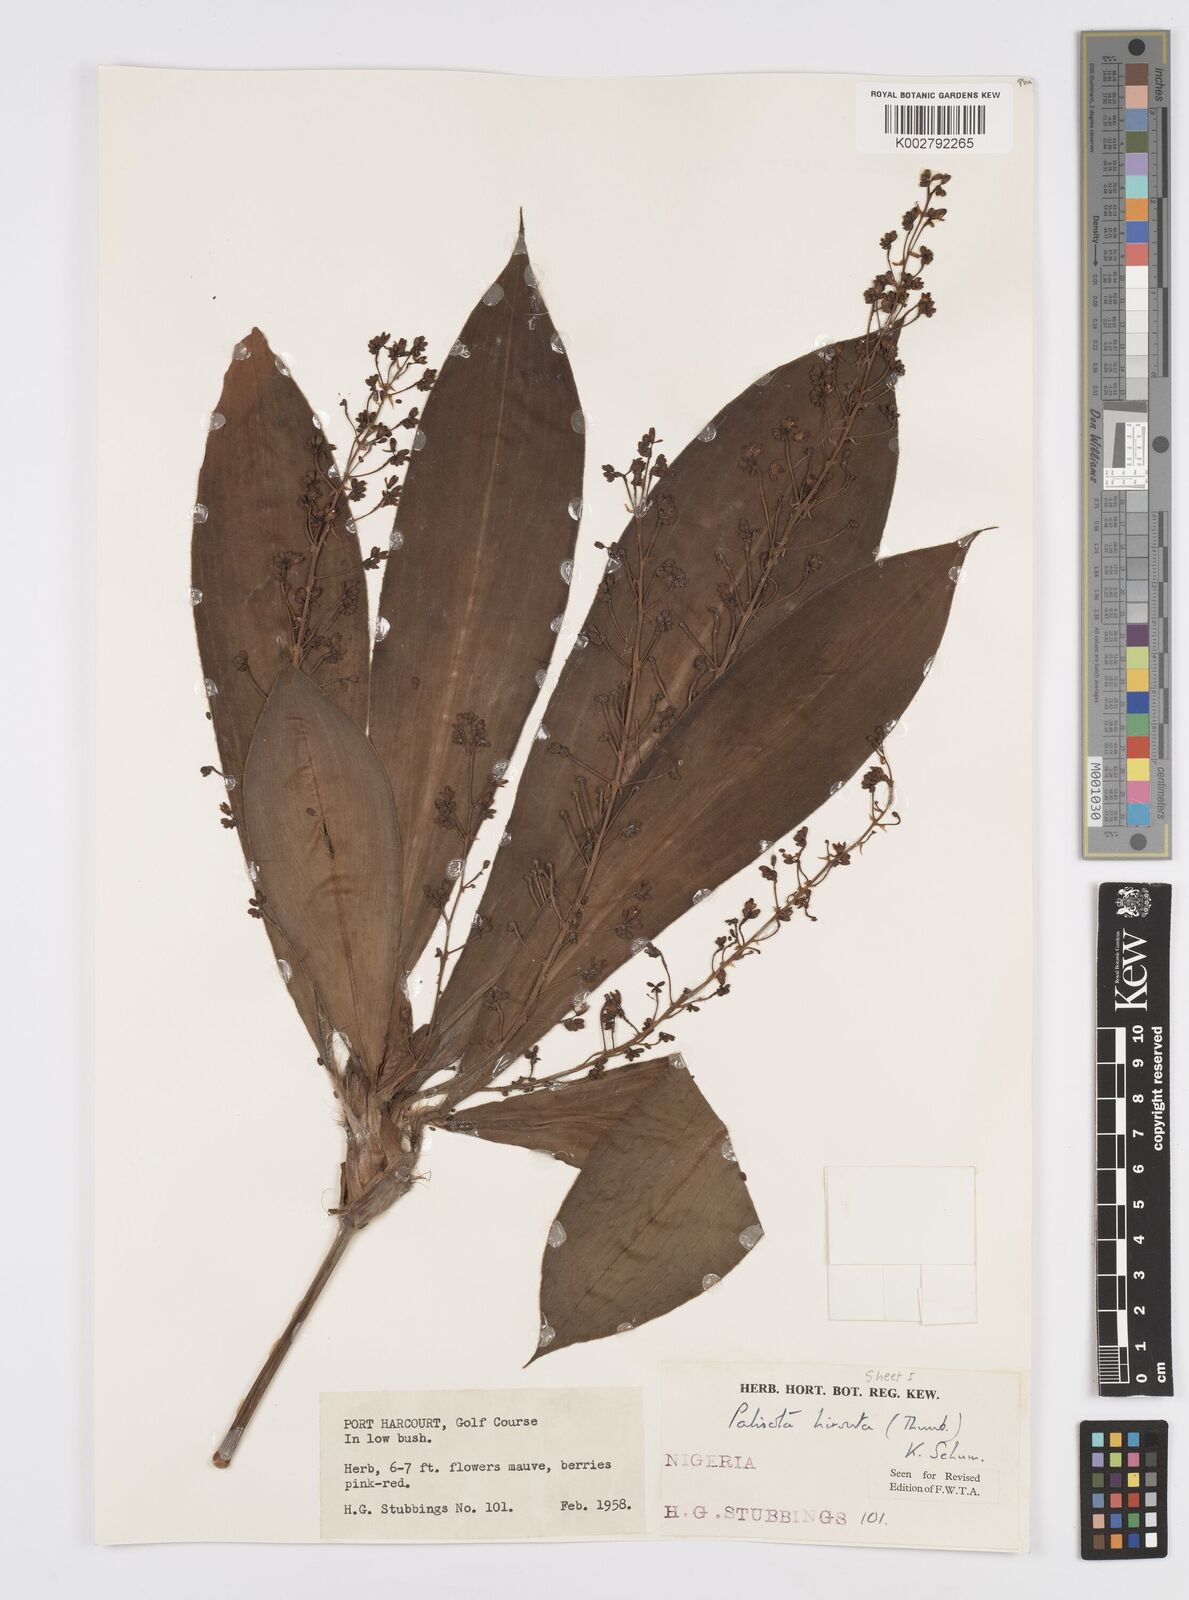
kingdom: Plantae
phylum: Tracheophyta
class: Liliopsida
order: Commelinales
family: Commelinaceae
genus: Palisota
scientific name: Palisota hirsuta
